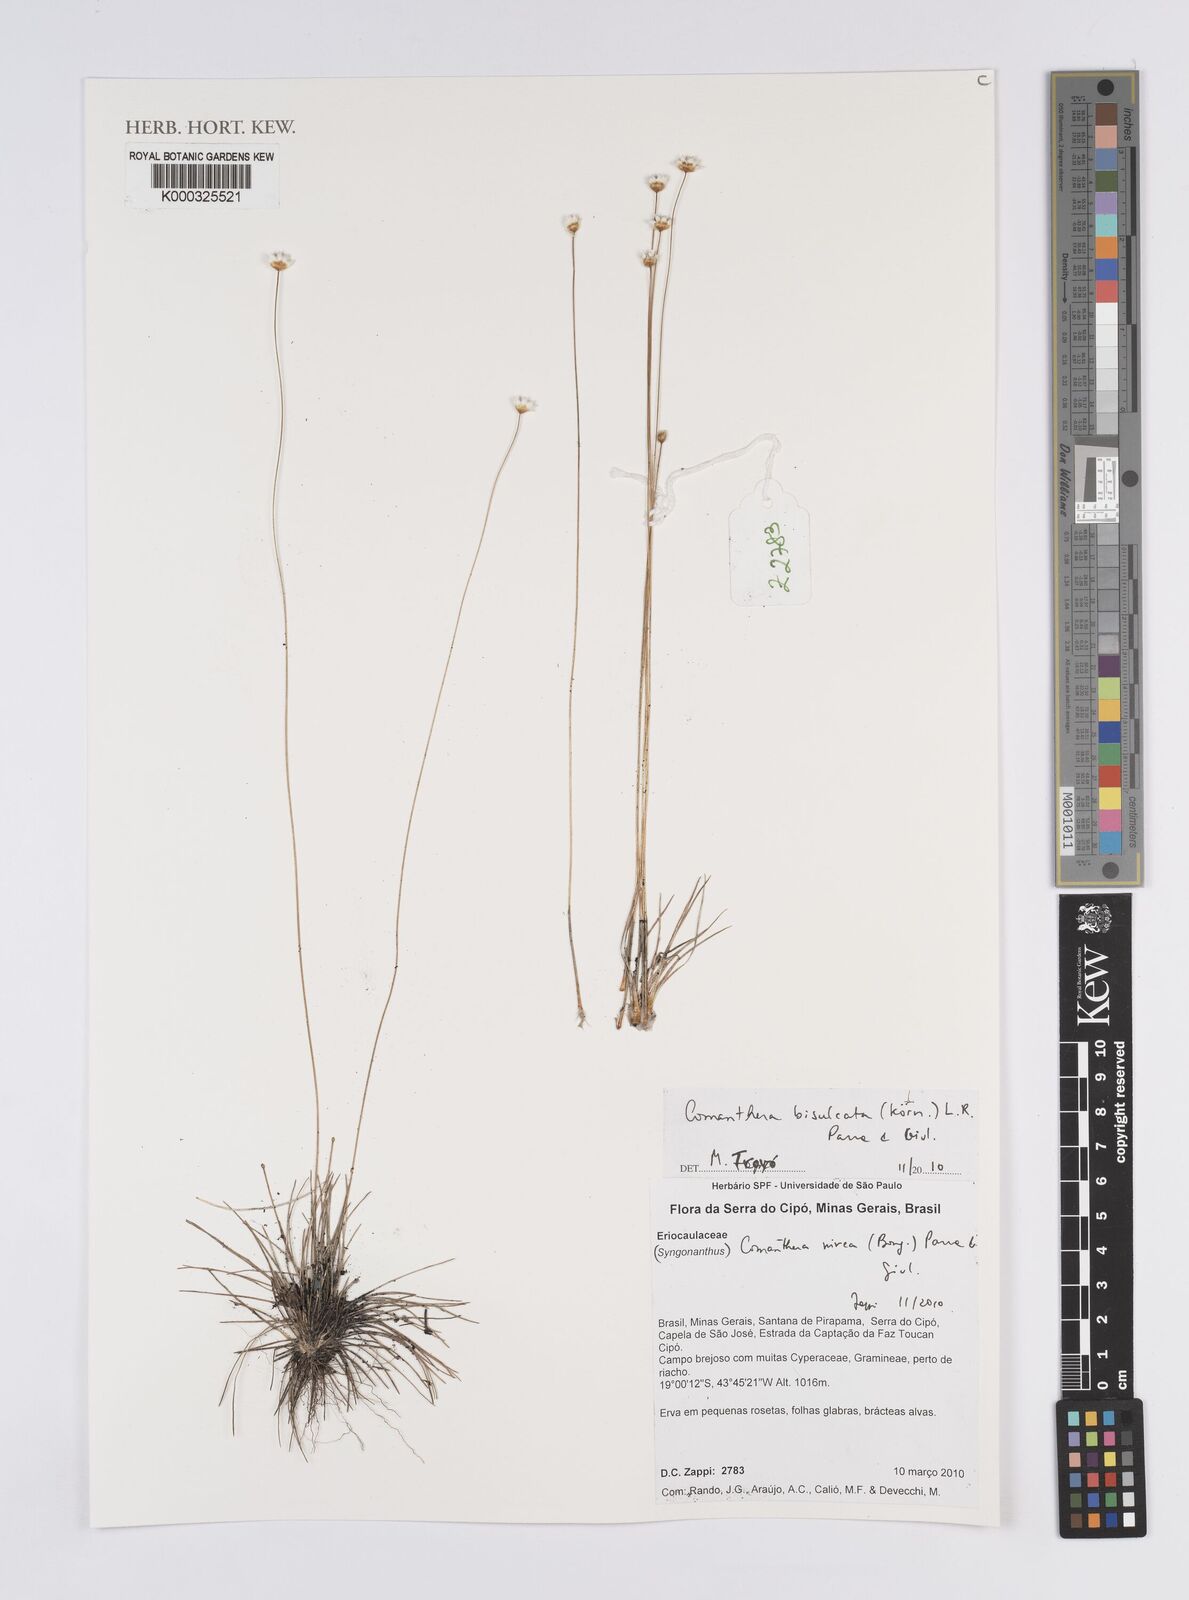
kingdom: Plantae
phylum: Tracheophyta
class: Liliopsida
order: Poales
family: Eriocaulaceae
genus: Comanthera
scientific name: Comanthera bisulcata
